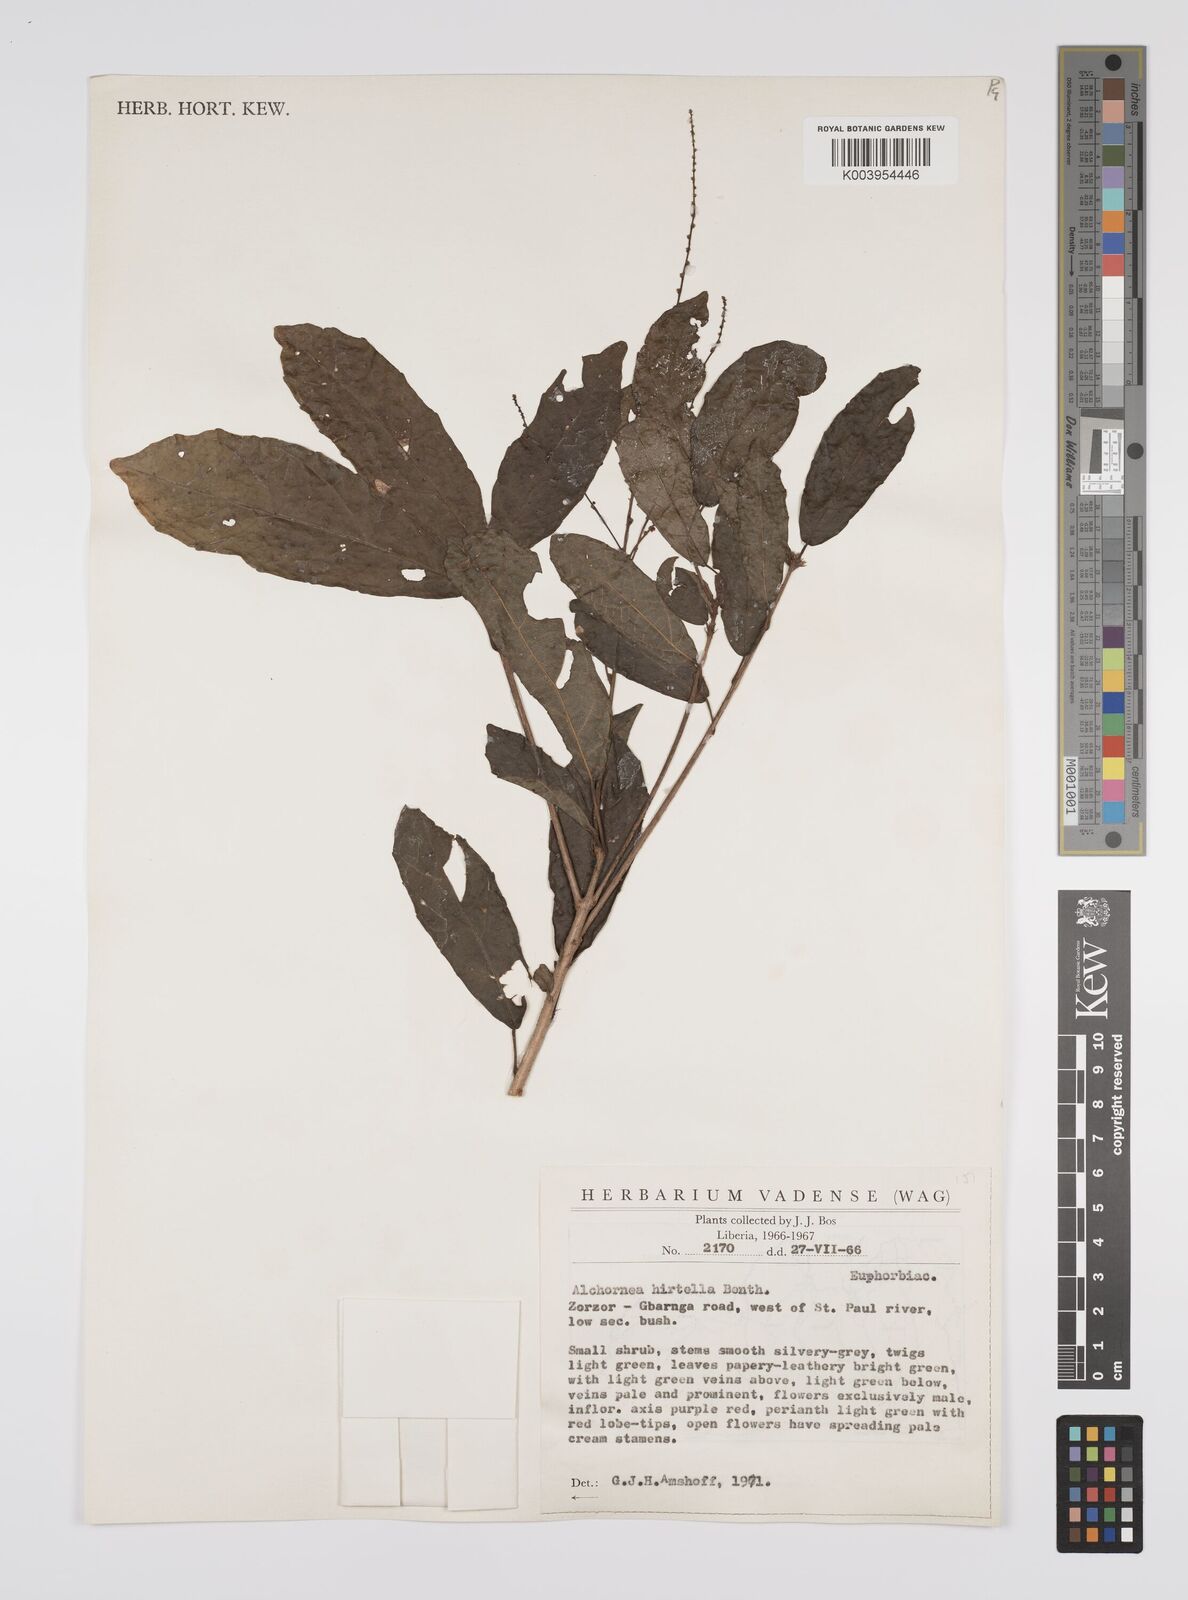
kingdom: Plantae
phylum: Tracheophyta
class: Magnoliopsida
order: Malpighiales
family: Euphorbiaceae
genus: Alchornea
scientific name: Alchornea hirtella
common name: Forest bead-string
